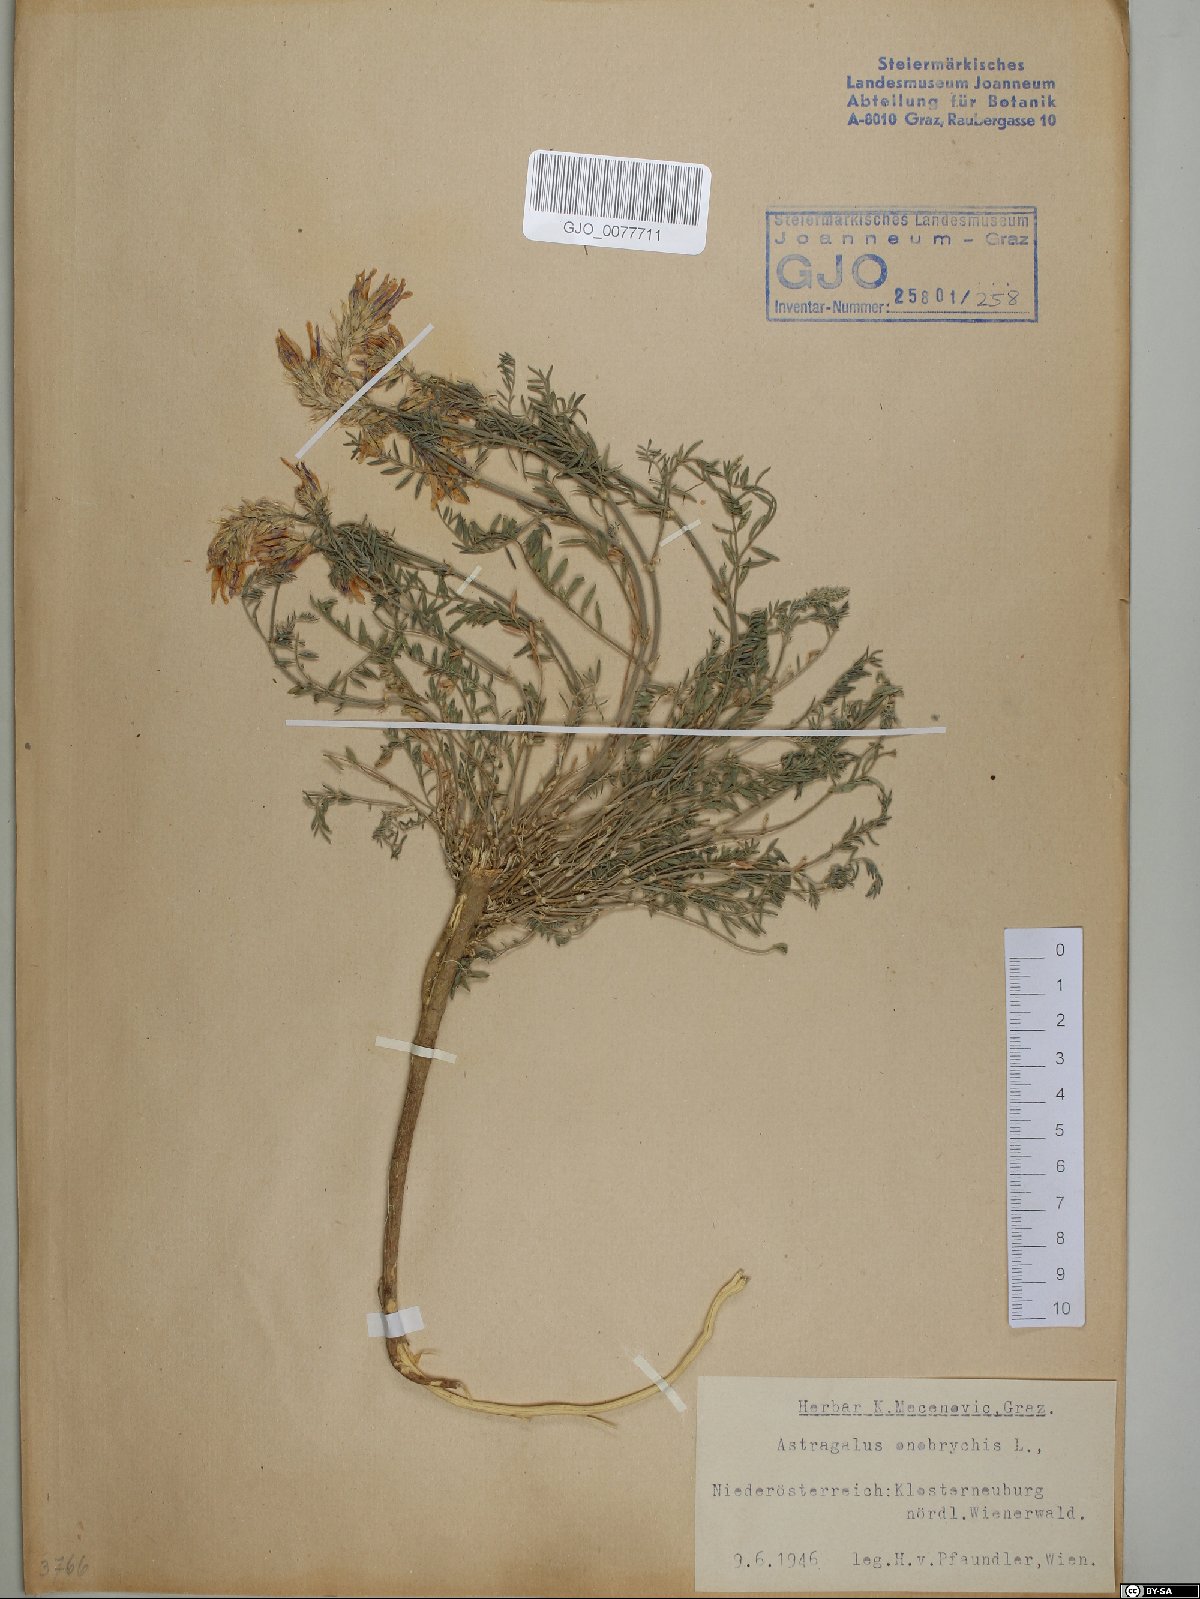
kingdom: Plantae
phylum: Tracheophyta
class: Magnoliopsida
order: Fabales
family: Fabaceae
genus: Astragalus
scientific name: Astragalus onobrychis
